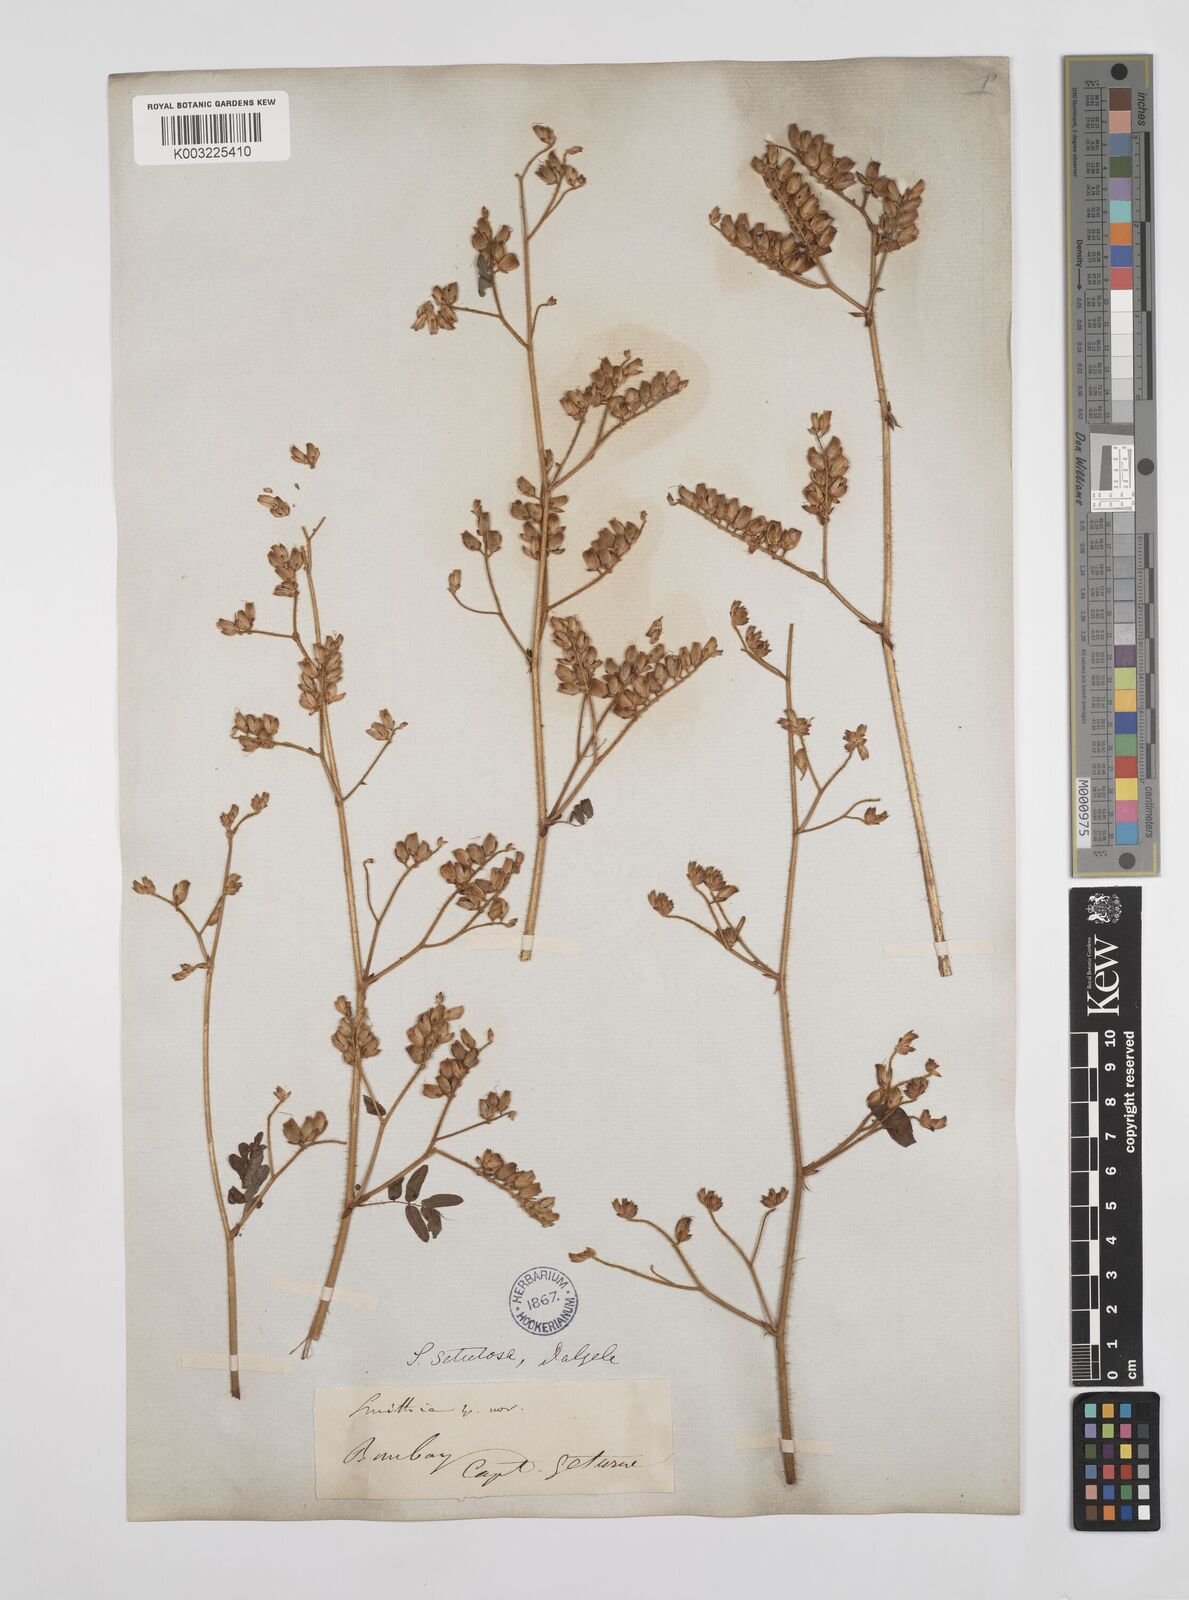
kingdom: Plantae
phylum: Tracheophyta
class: Magnoliopsida
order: Fabales
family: Fabaceae
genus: Smithia
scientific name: Smithia setulosa
